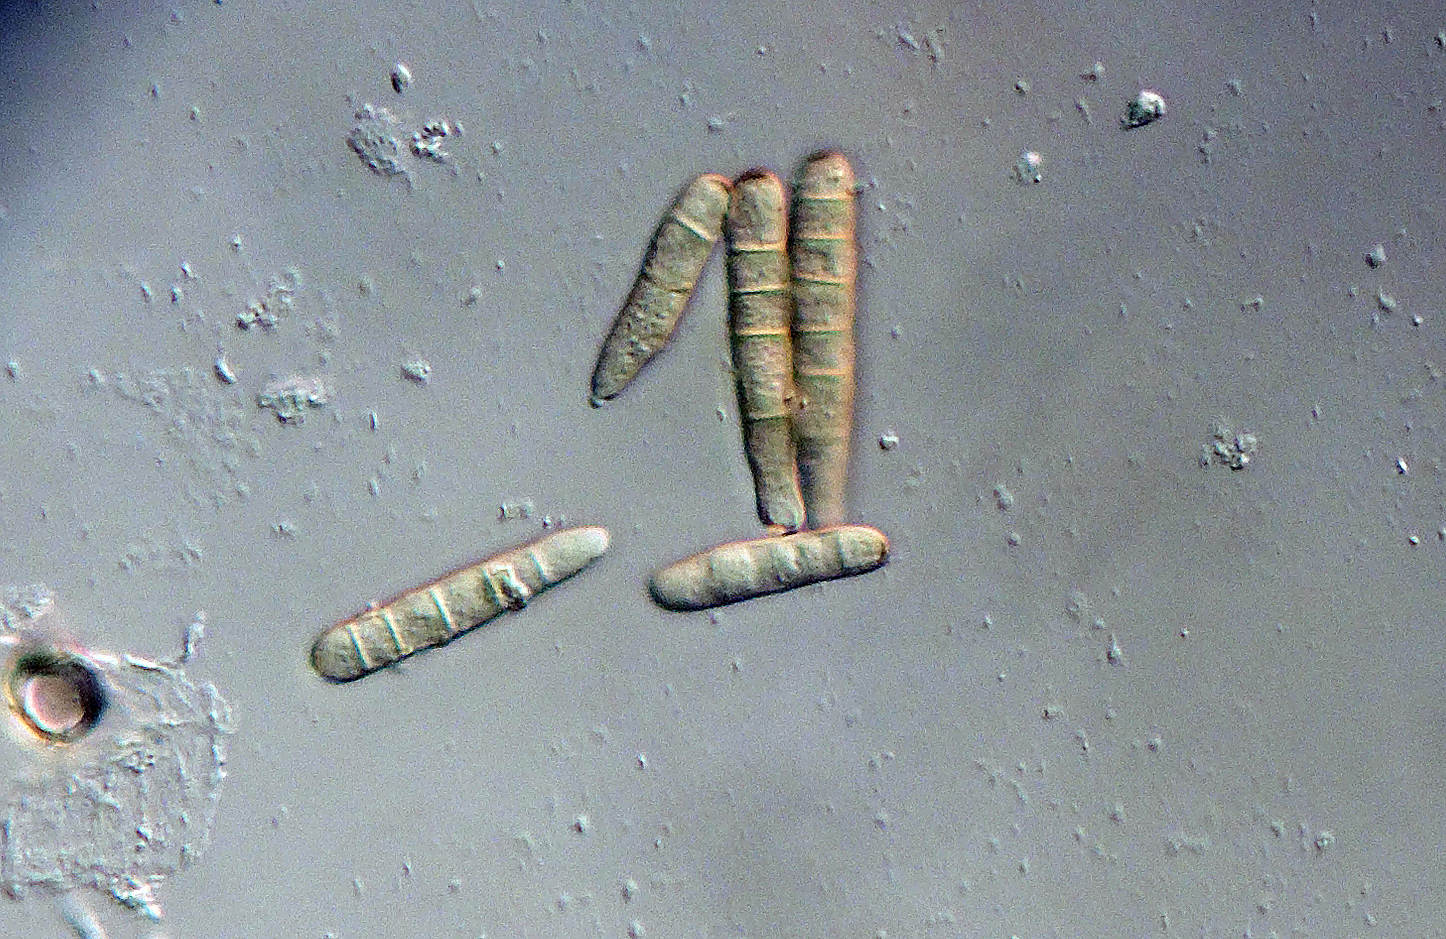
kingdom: Fungi
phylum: Ascomycota
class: Dothideomycetes
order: Pleosporales
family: Pleosporaceae
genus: Alternaria
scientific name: Alternaria penicillata
